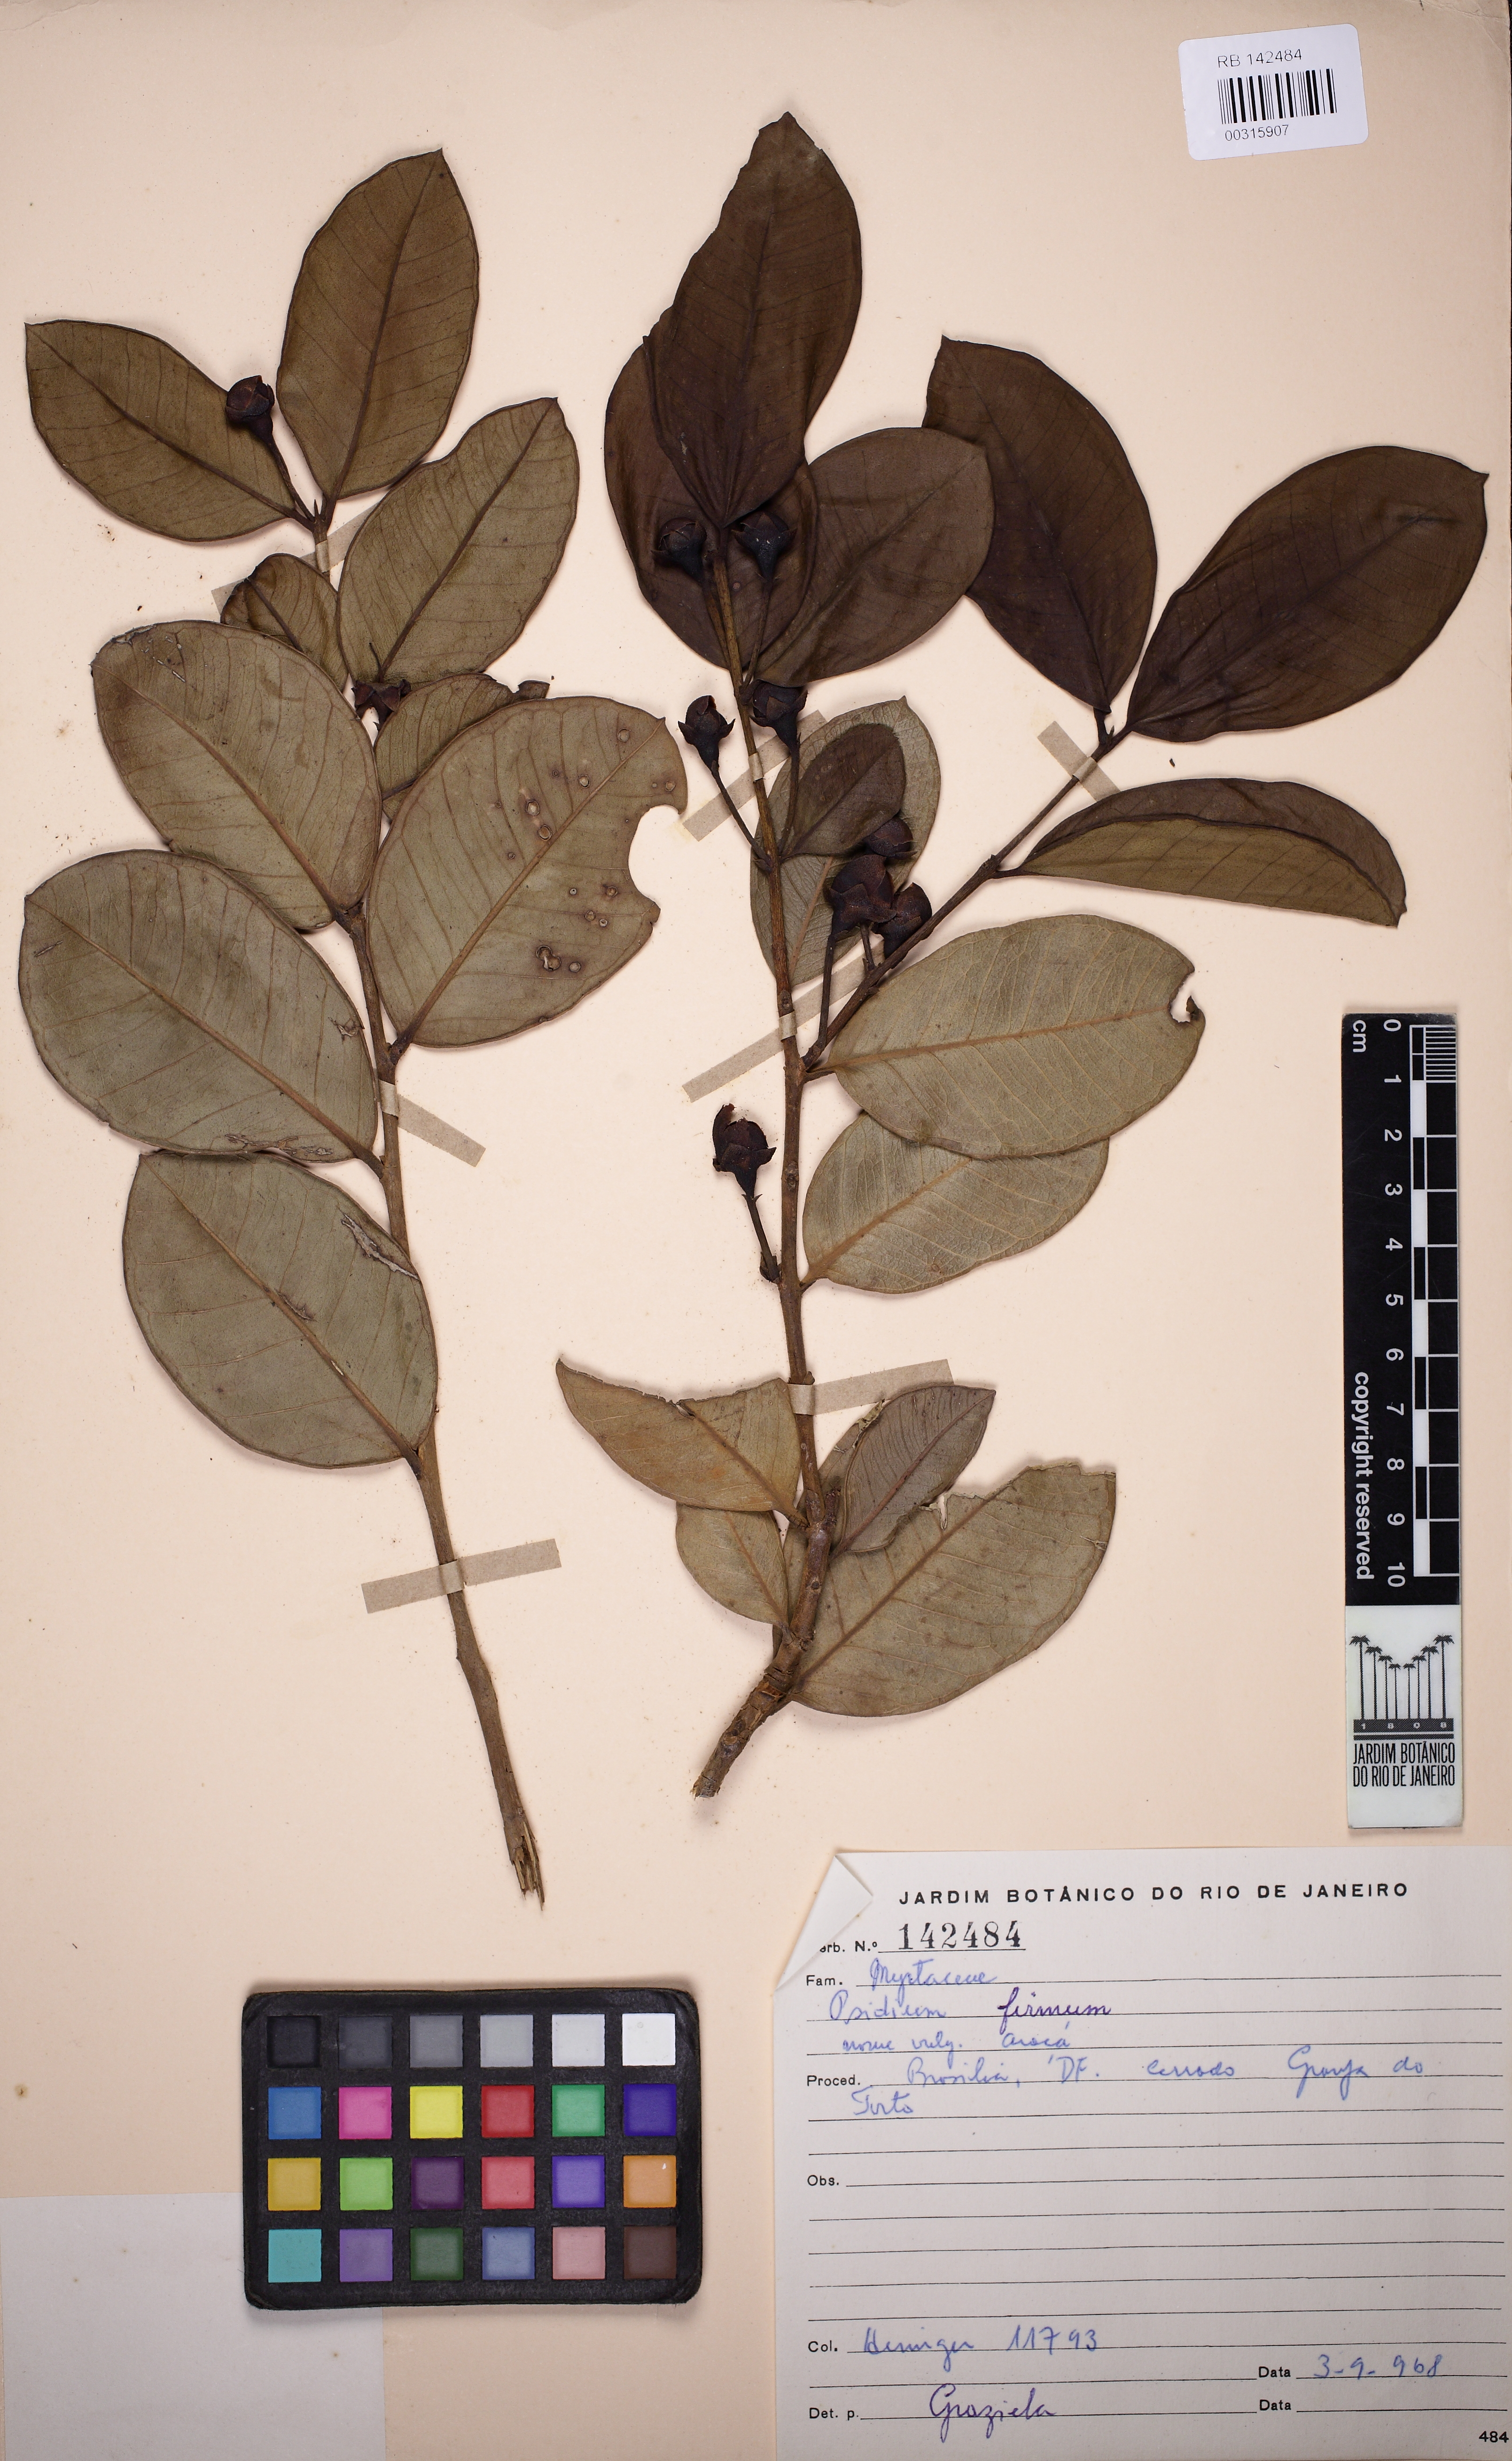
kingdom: Plantae
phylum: Tracheophyta
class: Magnoliopsida
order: Myrtales
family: Myrtaceae
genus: Psidium
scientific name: Psidium firmum
